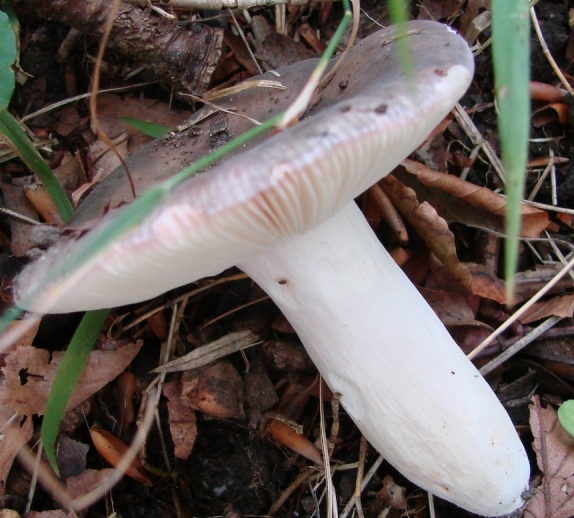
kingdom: Fungi
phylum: Basidiomycota
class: Agaricomycetes
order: Russulales
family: Russulaceae
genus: Russula
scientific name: Russula
